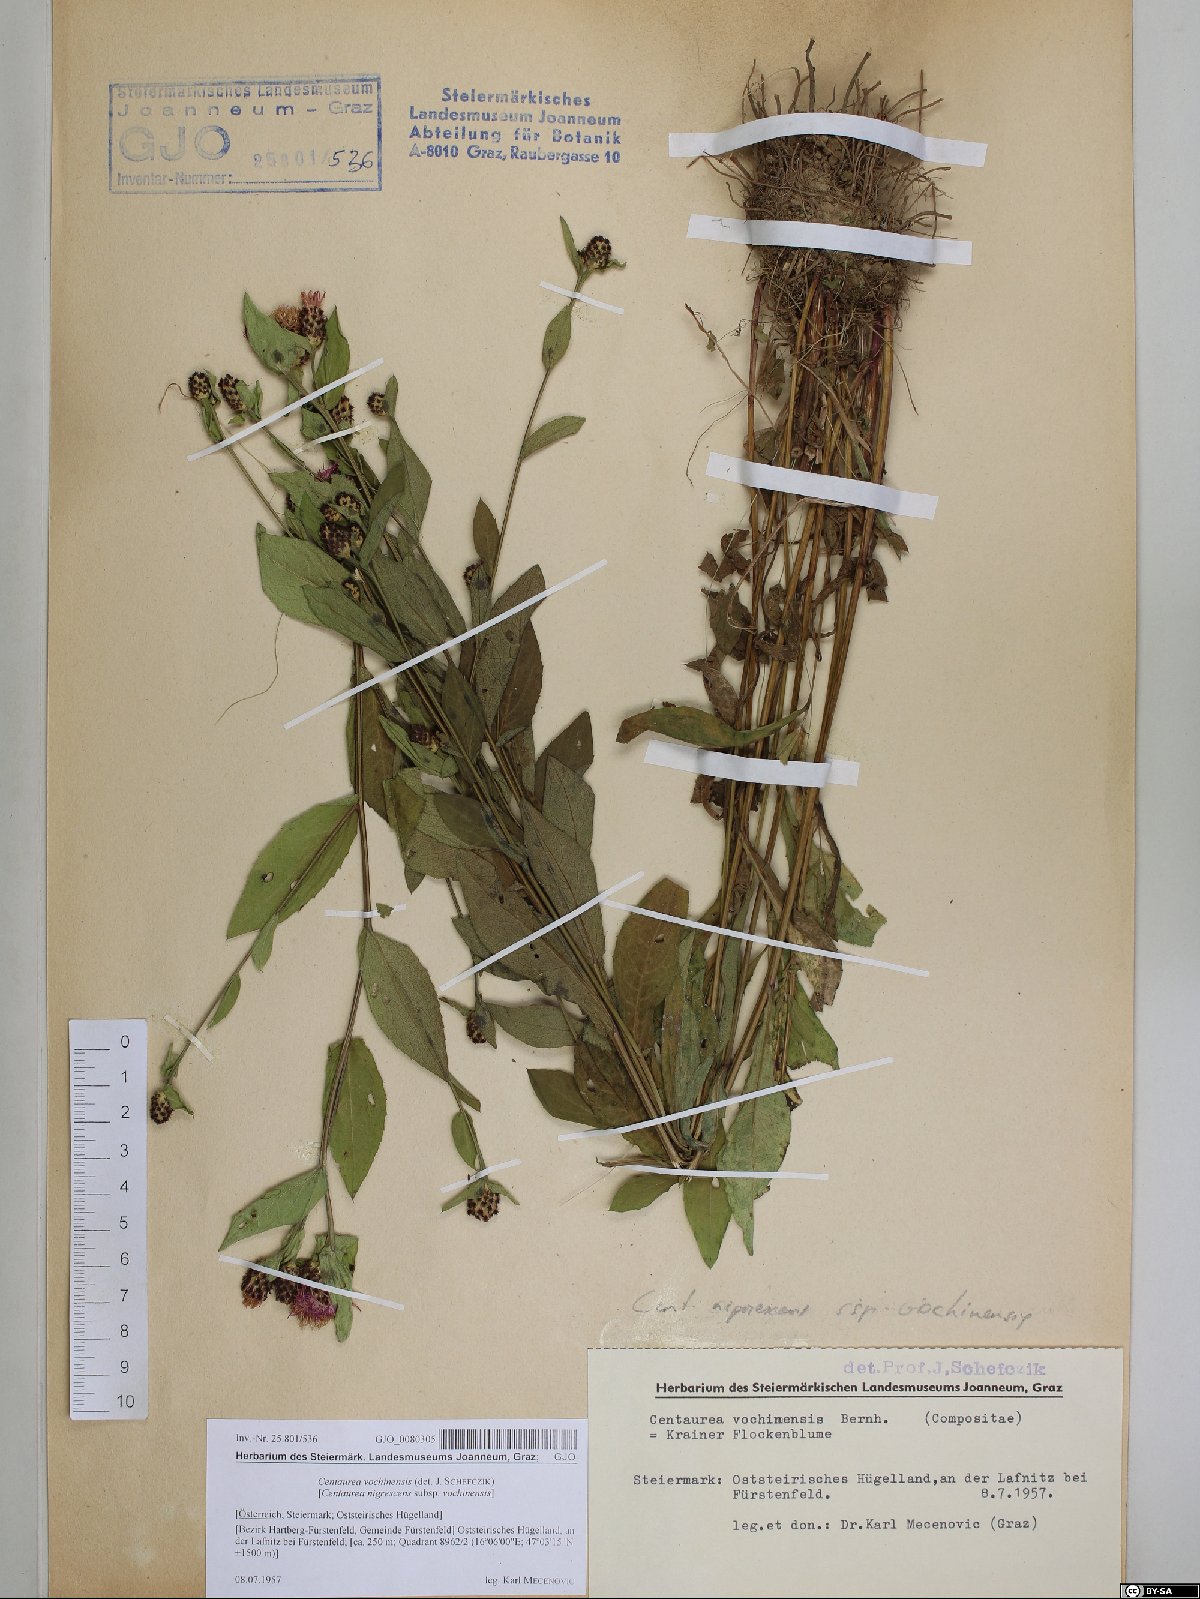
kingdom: Plantae
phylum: Tracheophyta
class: Magnoliopsida
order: Asterales
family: Asteraceae
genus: Centaurea
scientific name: Centaurea carniolica
